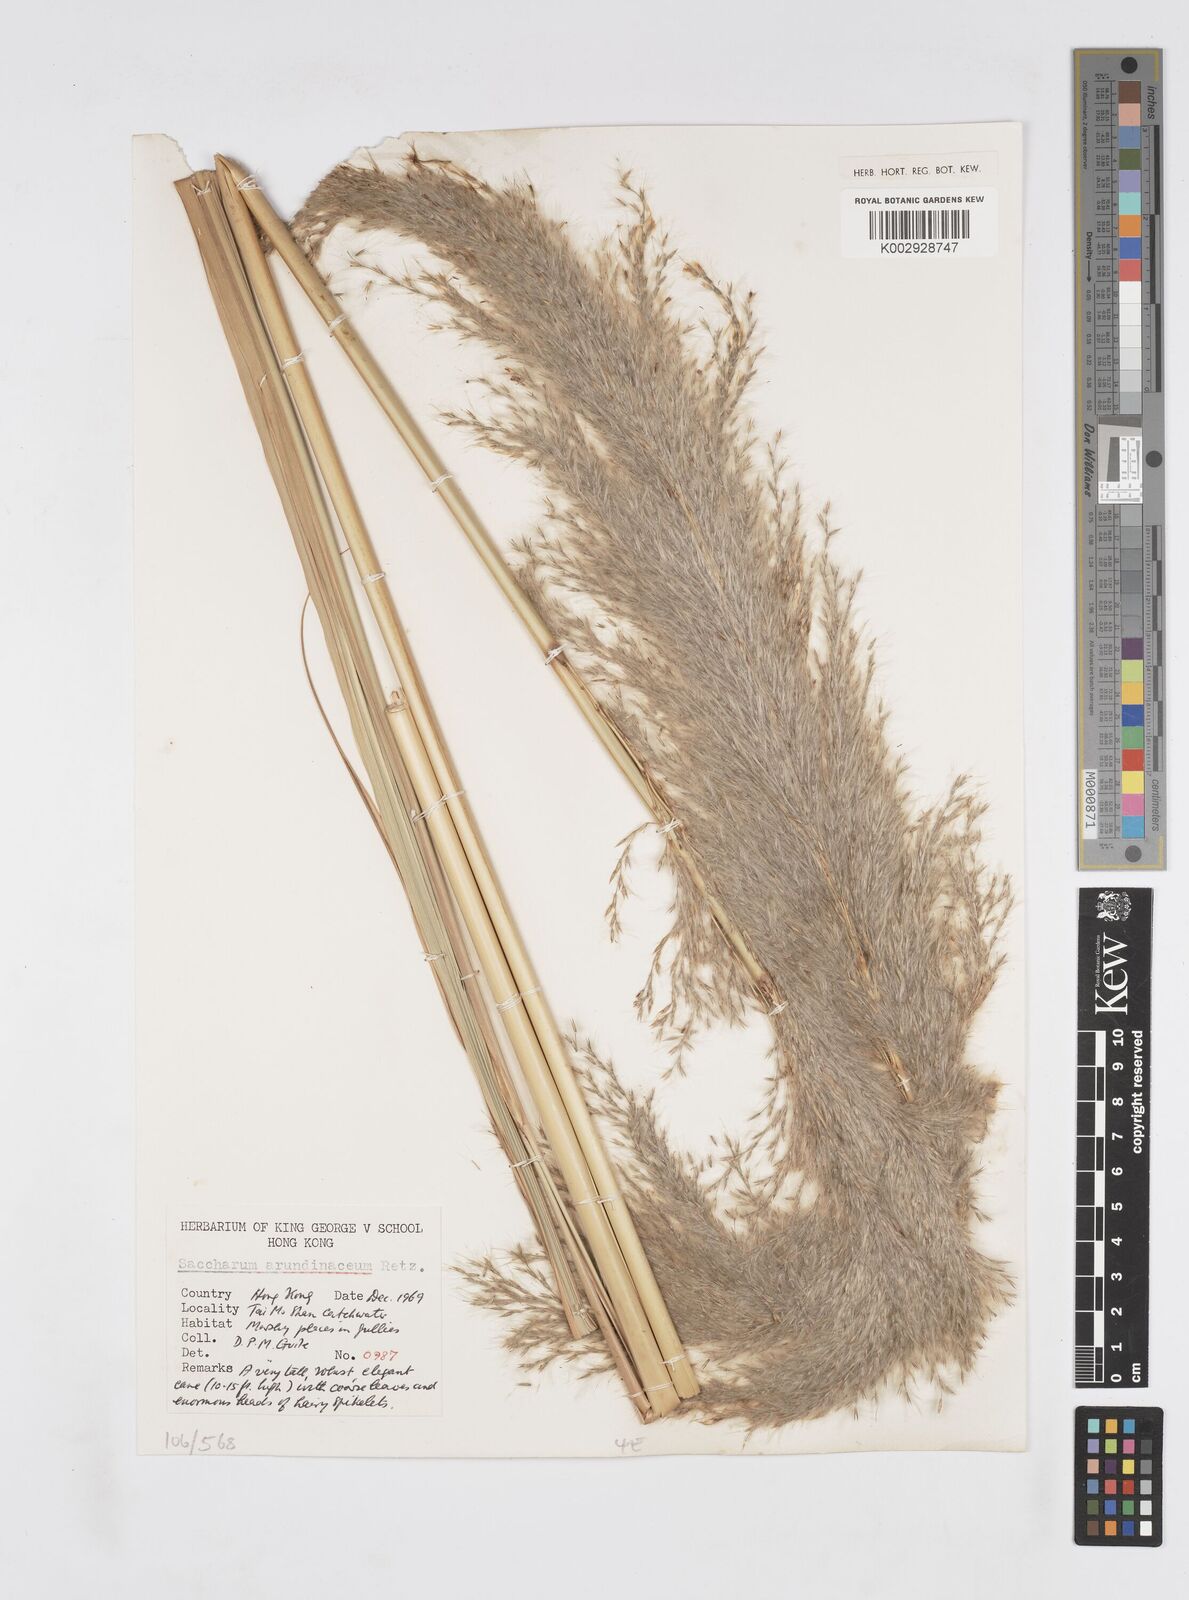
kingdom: Plantae
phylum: Tracheophyta
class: Liliopsida
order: Poales
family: Poaceae
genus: Tripidium
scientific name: Tripidium arundinaceum
